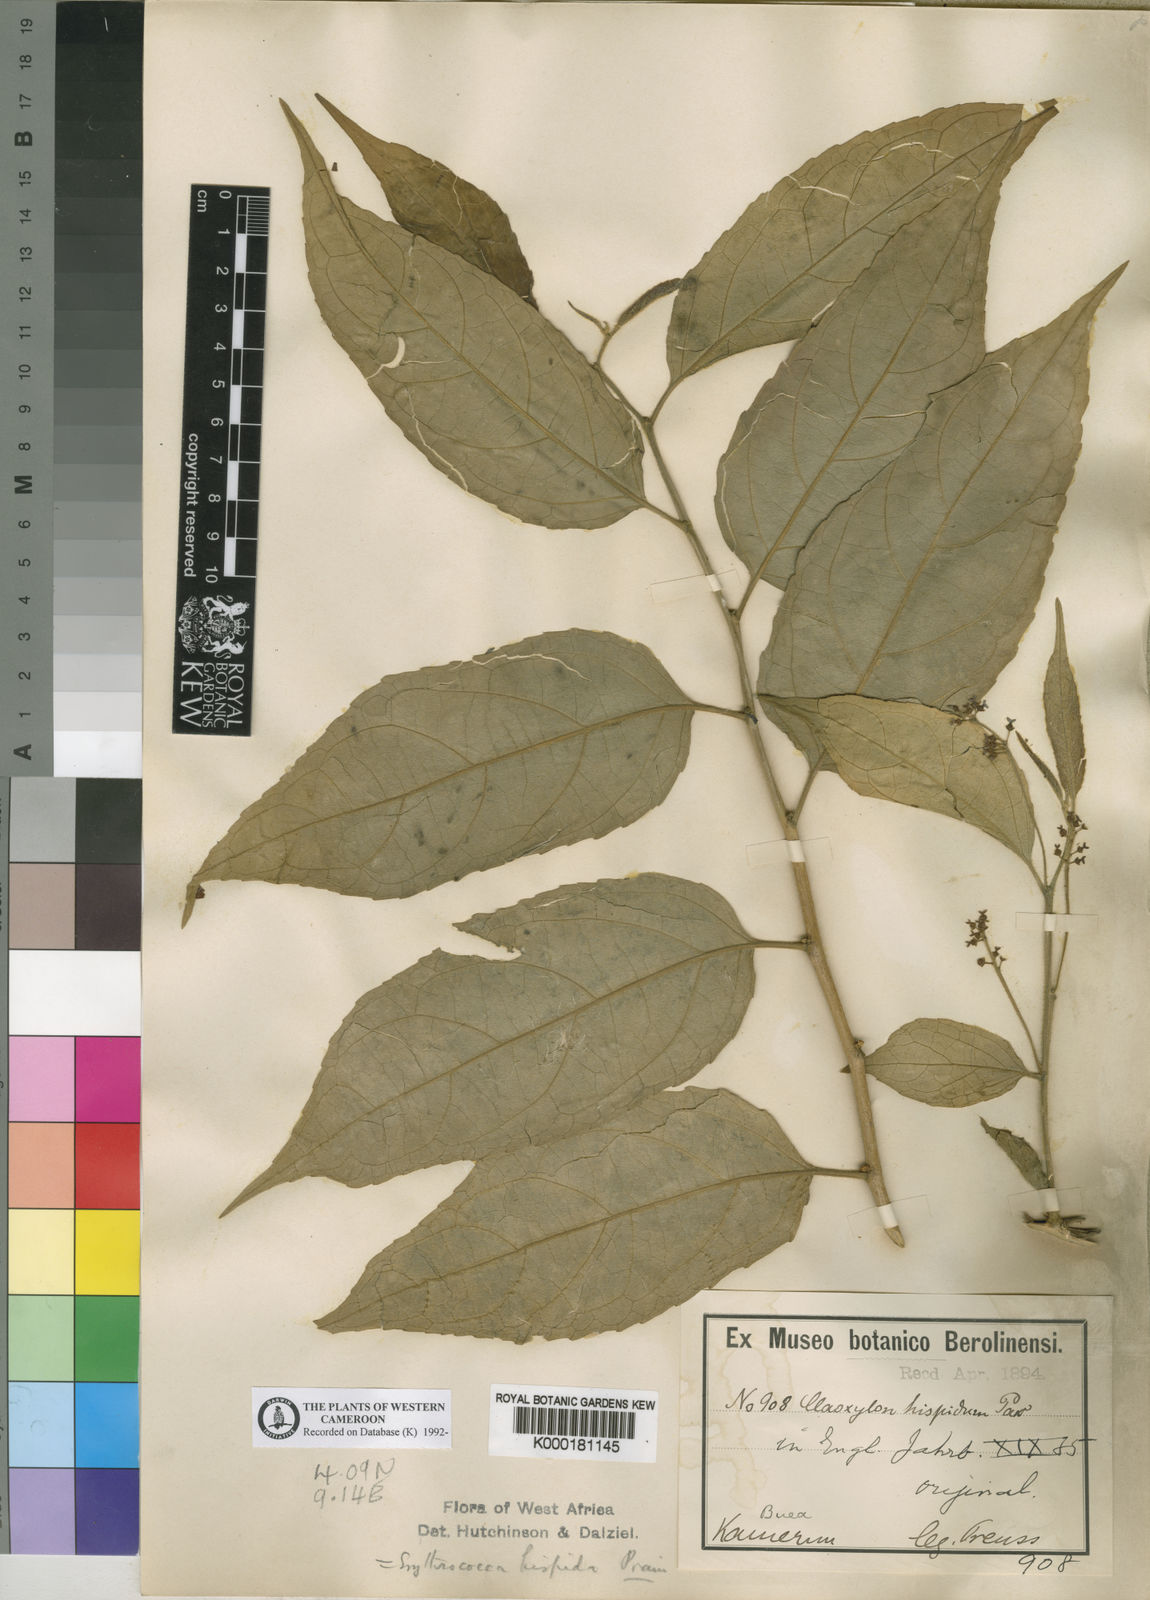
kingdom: Plantae
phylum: Tracheophyta
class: Magnoliopsida
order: Malpighiales
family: Euphorbiaceae
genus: Erythrococca
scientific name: Erythrococca hispida
